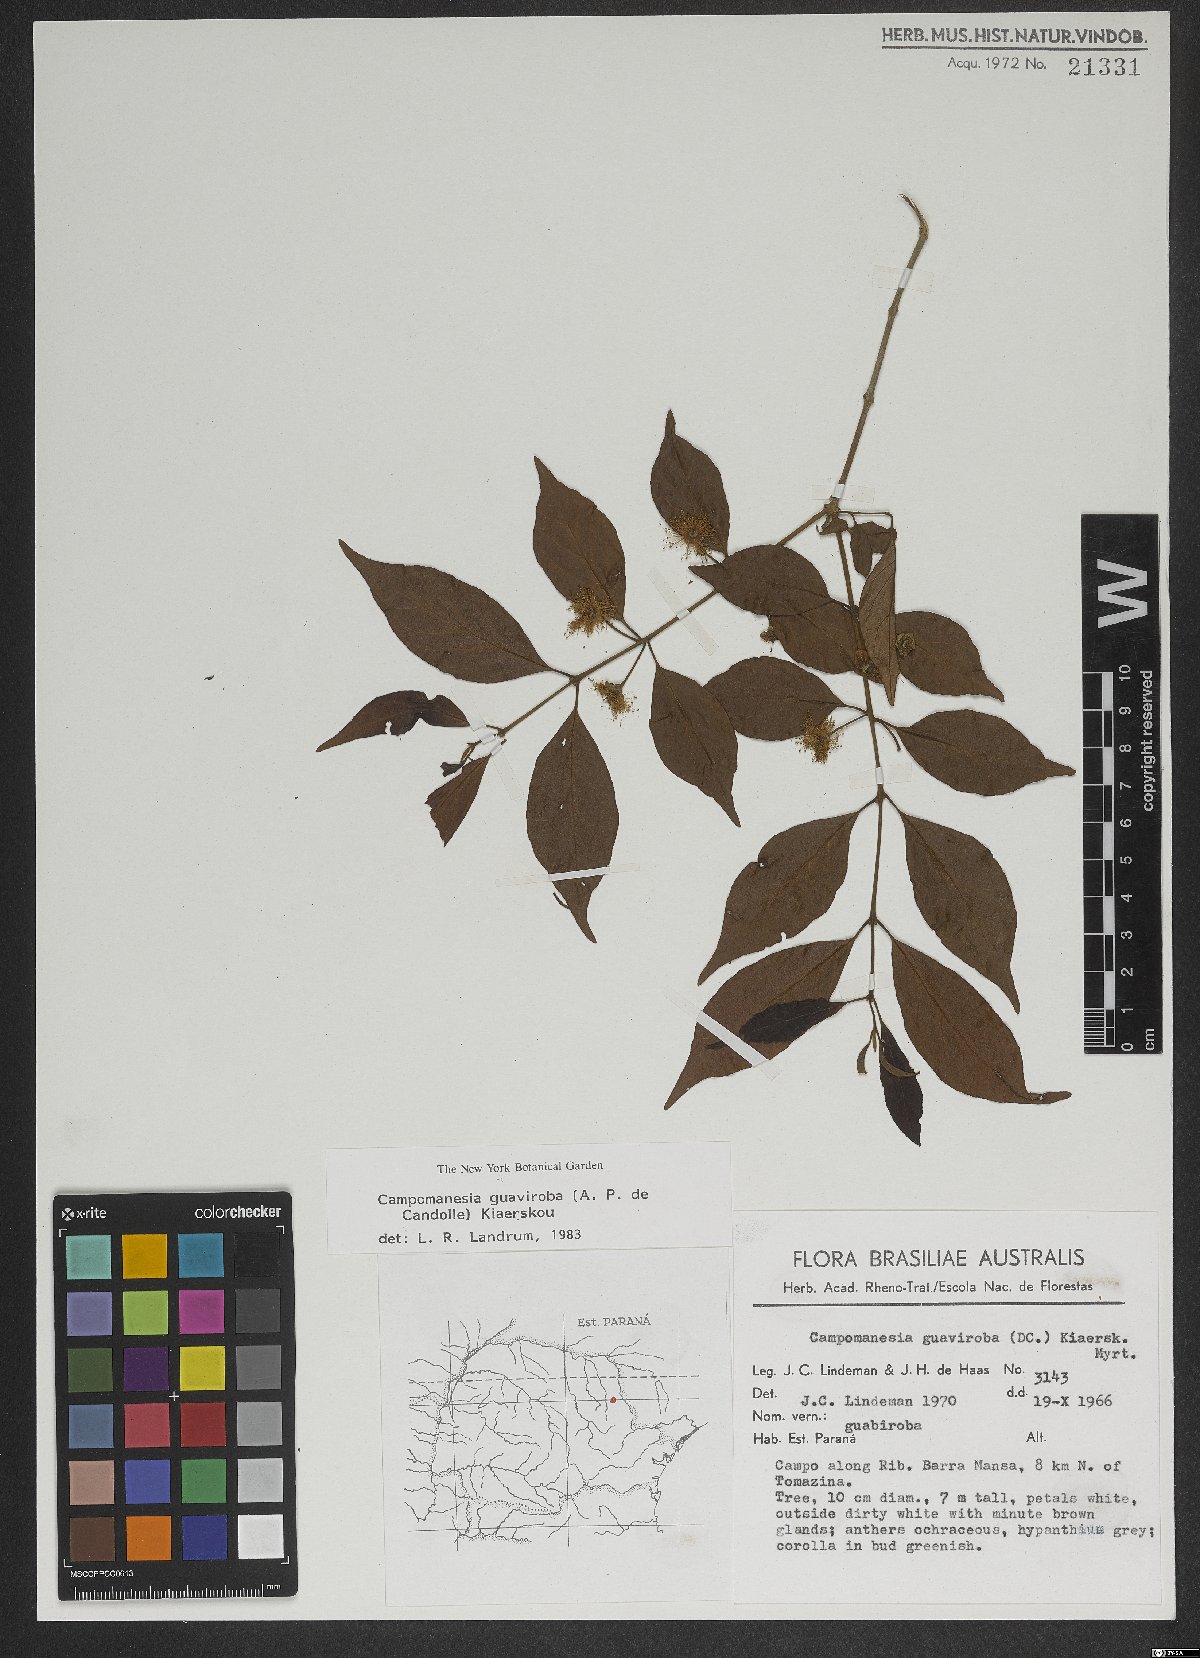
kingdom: Plantae
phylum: Tracheophyta
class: Magnoliopsida
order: Myrtales
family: Myrtaceae
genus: Campomanesia
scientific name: Campomanesia guaviroba
